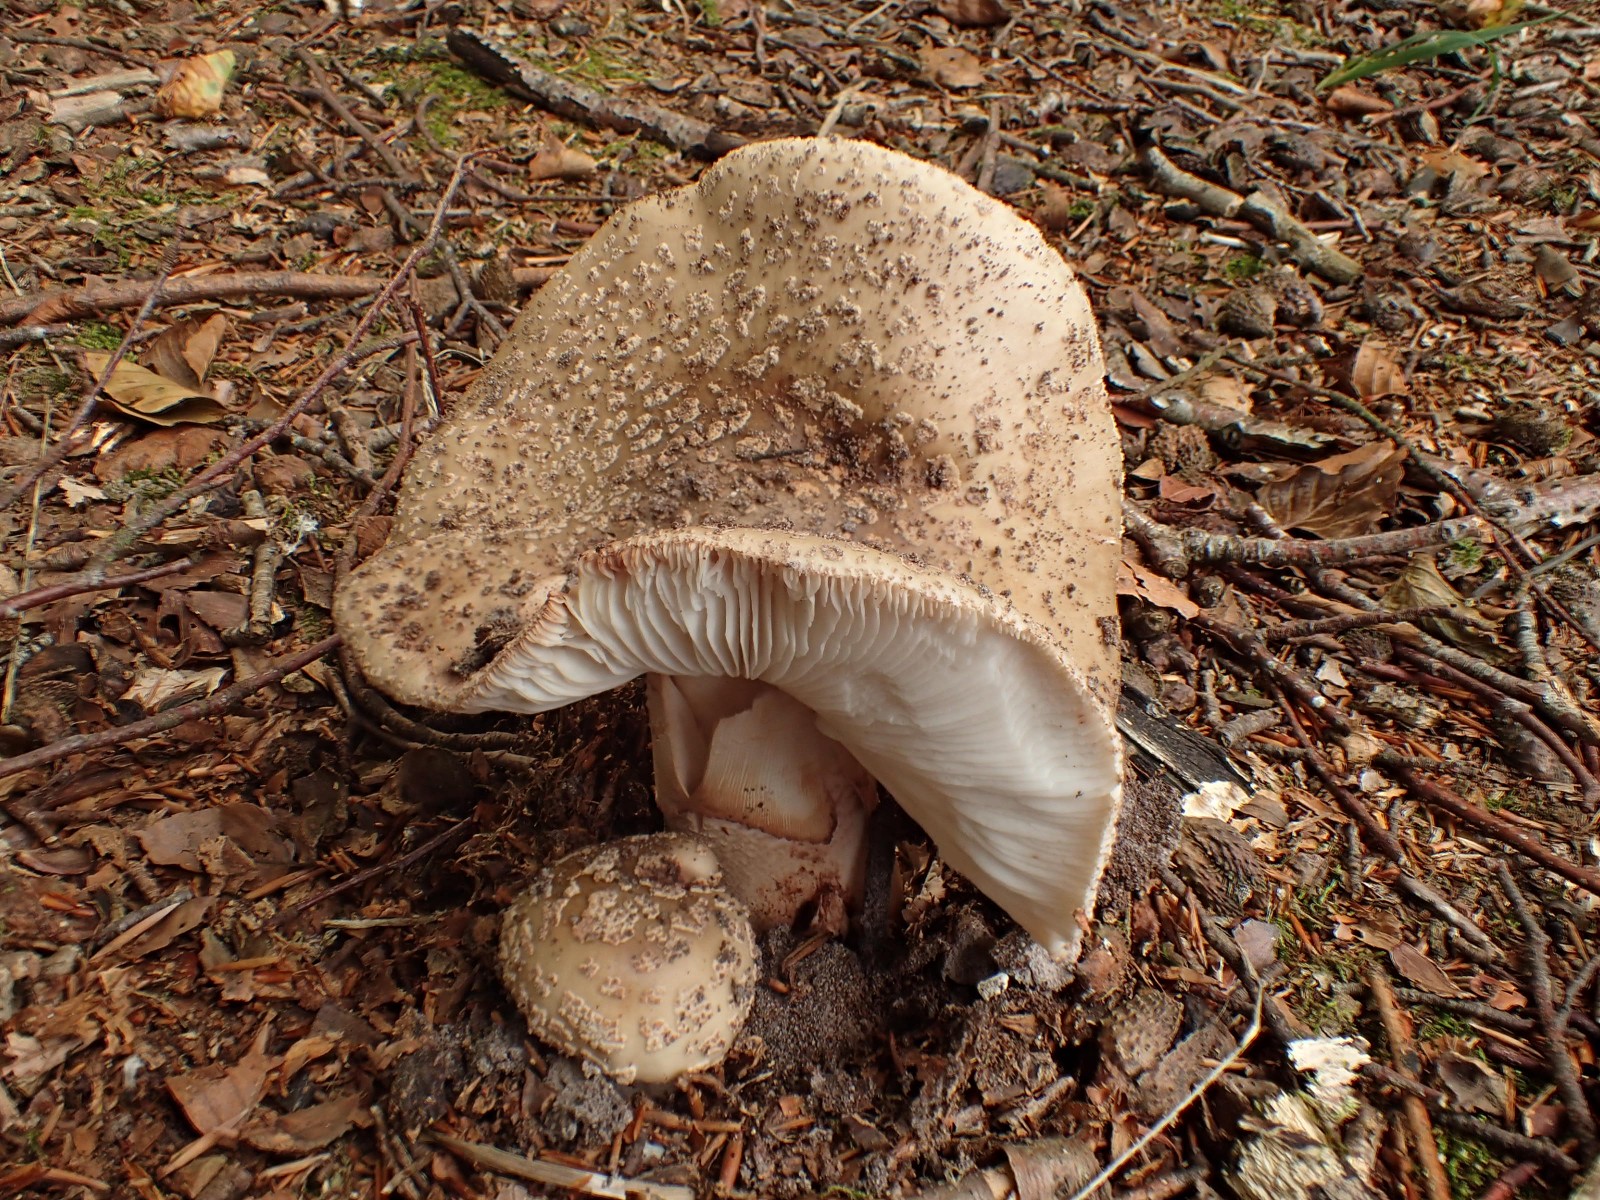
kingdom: Fungi
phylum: Basidiomycota
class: Agaricomycetes
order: Agaricales
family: Amanitaceae
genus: Amanita
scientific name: Amanita rubescens
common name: rødmende fluesvamp
